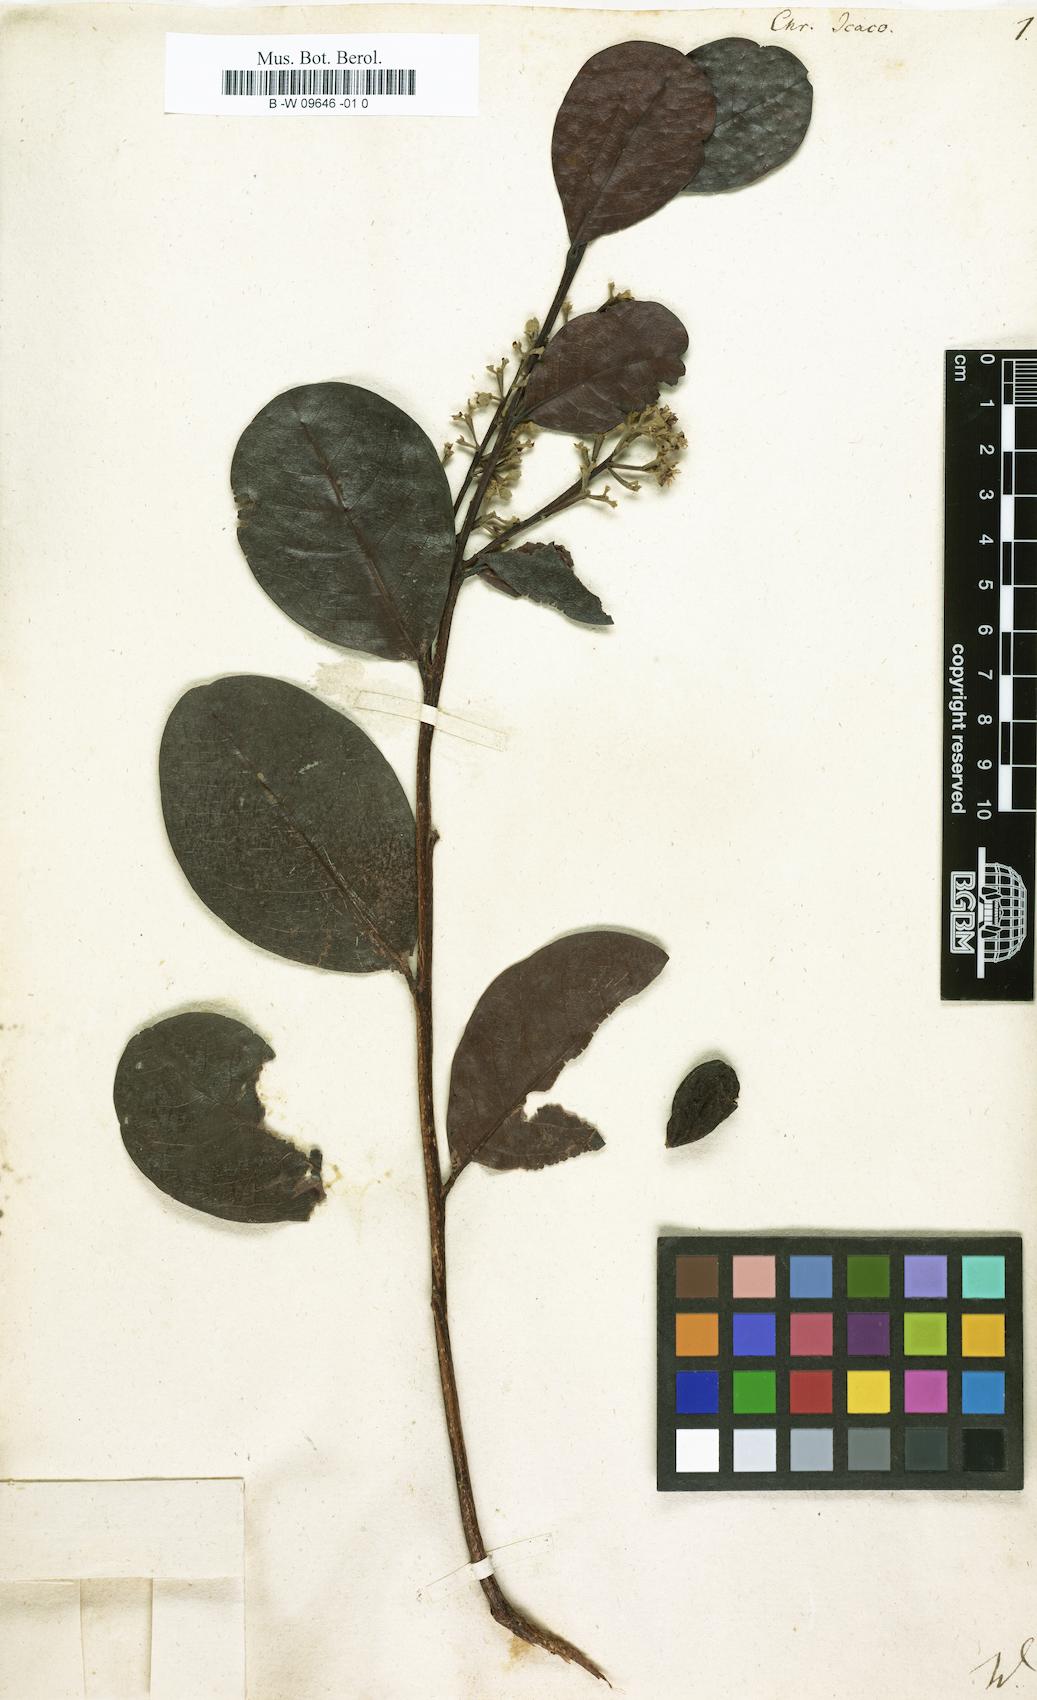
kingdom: Plantae
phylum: Tracheophyta
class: Magnoliopsida
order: Malpighiales
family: Chrysobalanaceae
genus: Chrysobalanus
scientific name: Chrysobalanus icaco
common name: Coco plum
